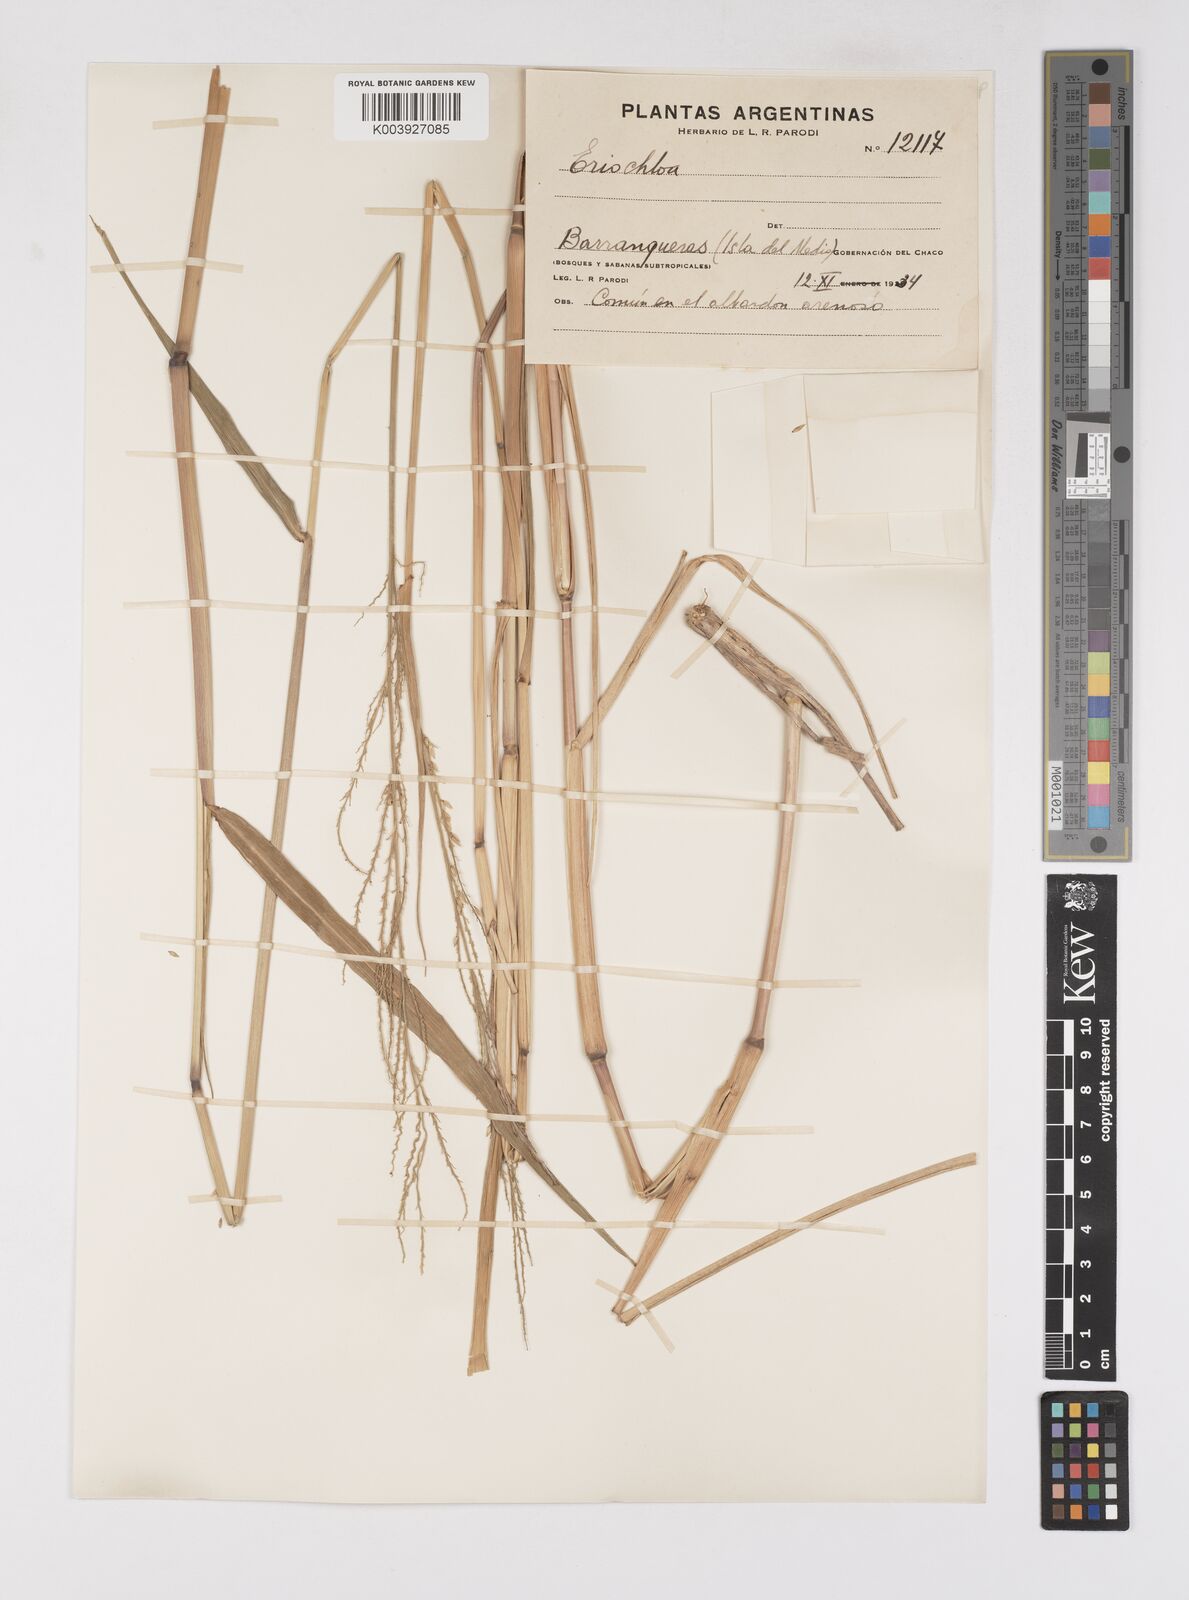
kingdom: Plantae
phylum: Tracheophyta
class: Liliopsida
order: Poales
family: Poaceae
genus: Eriochloa
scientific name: Eriochloa punctata
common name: Louisiana cupgrass
